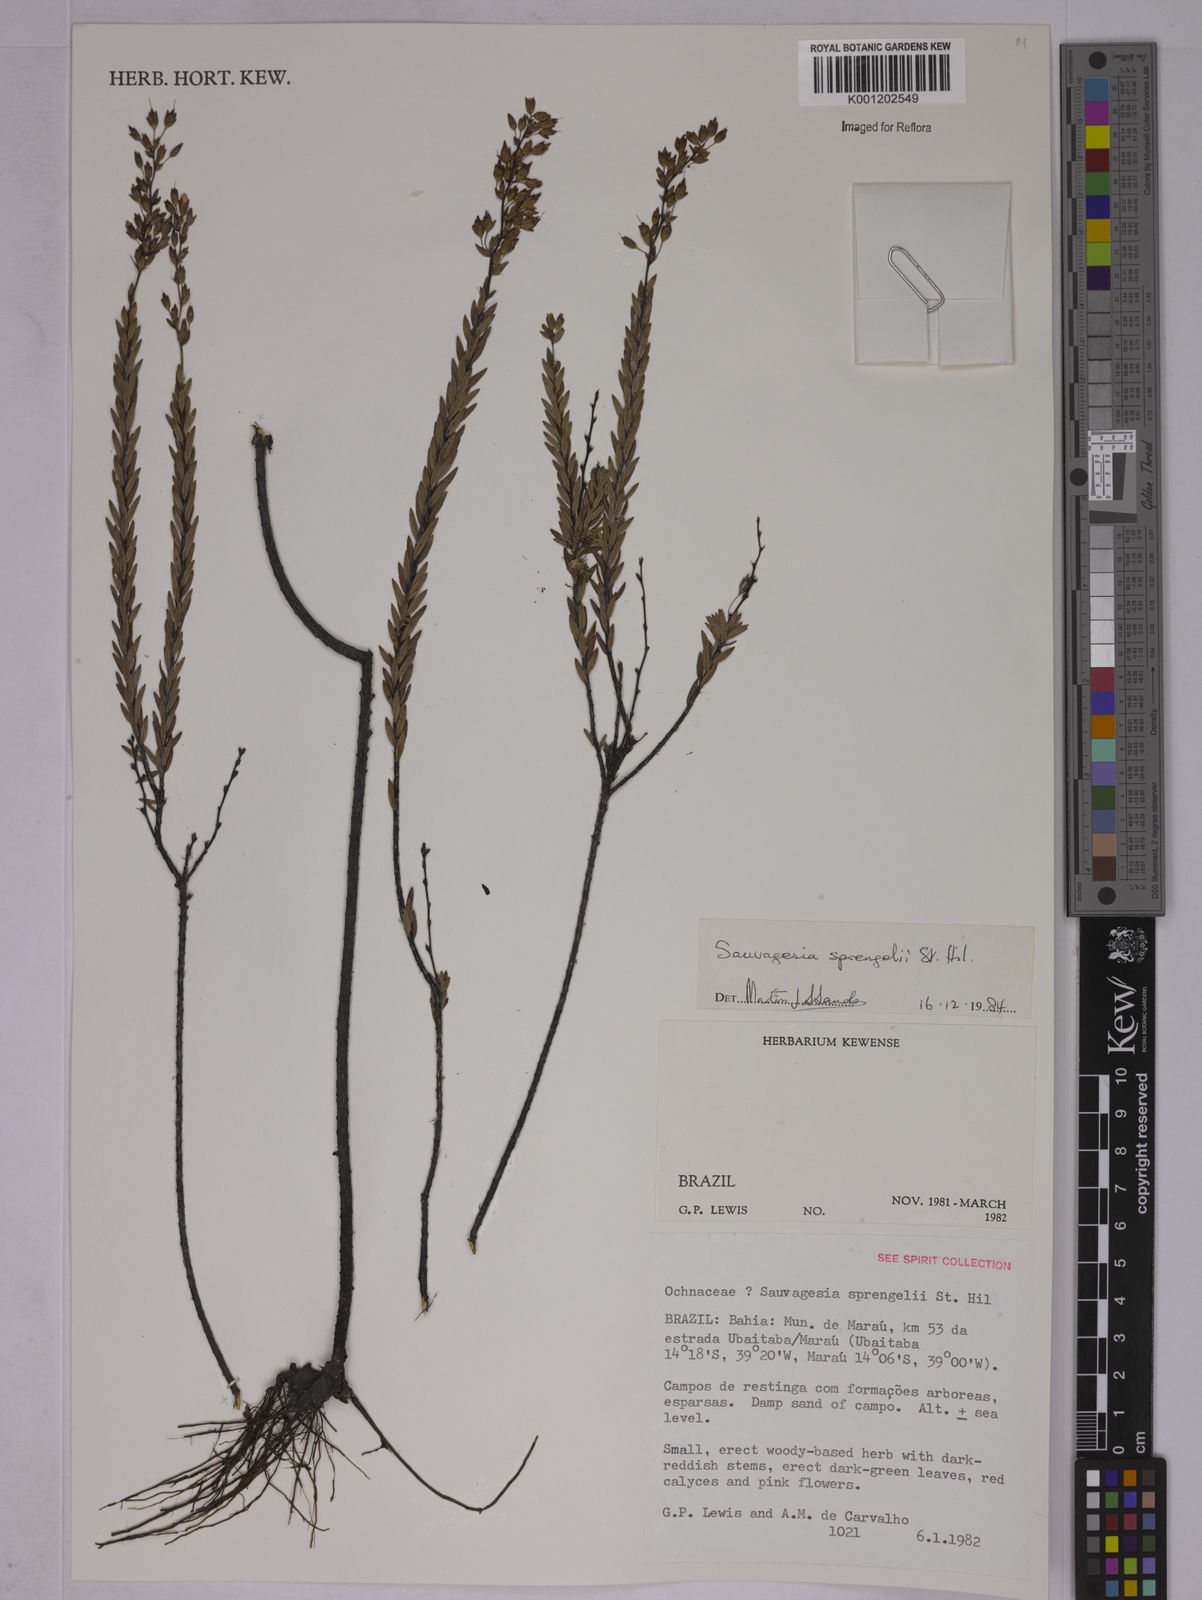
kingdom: Plantae
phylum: Tracheophyta
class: Magnoliopsida
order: Malpighiales
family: Ochnaceae
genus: Sauvagesia
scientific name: Sauvagesia sprengelii
